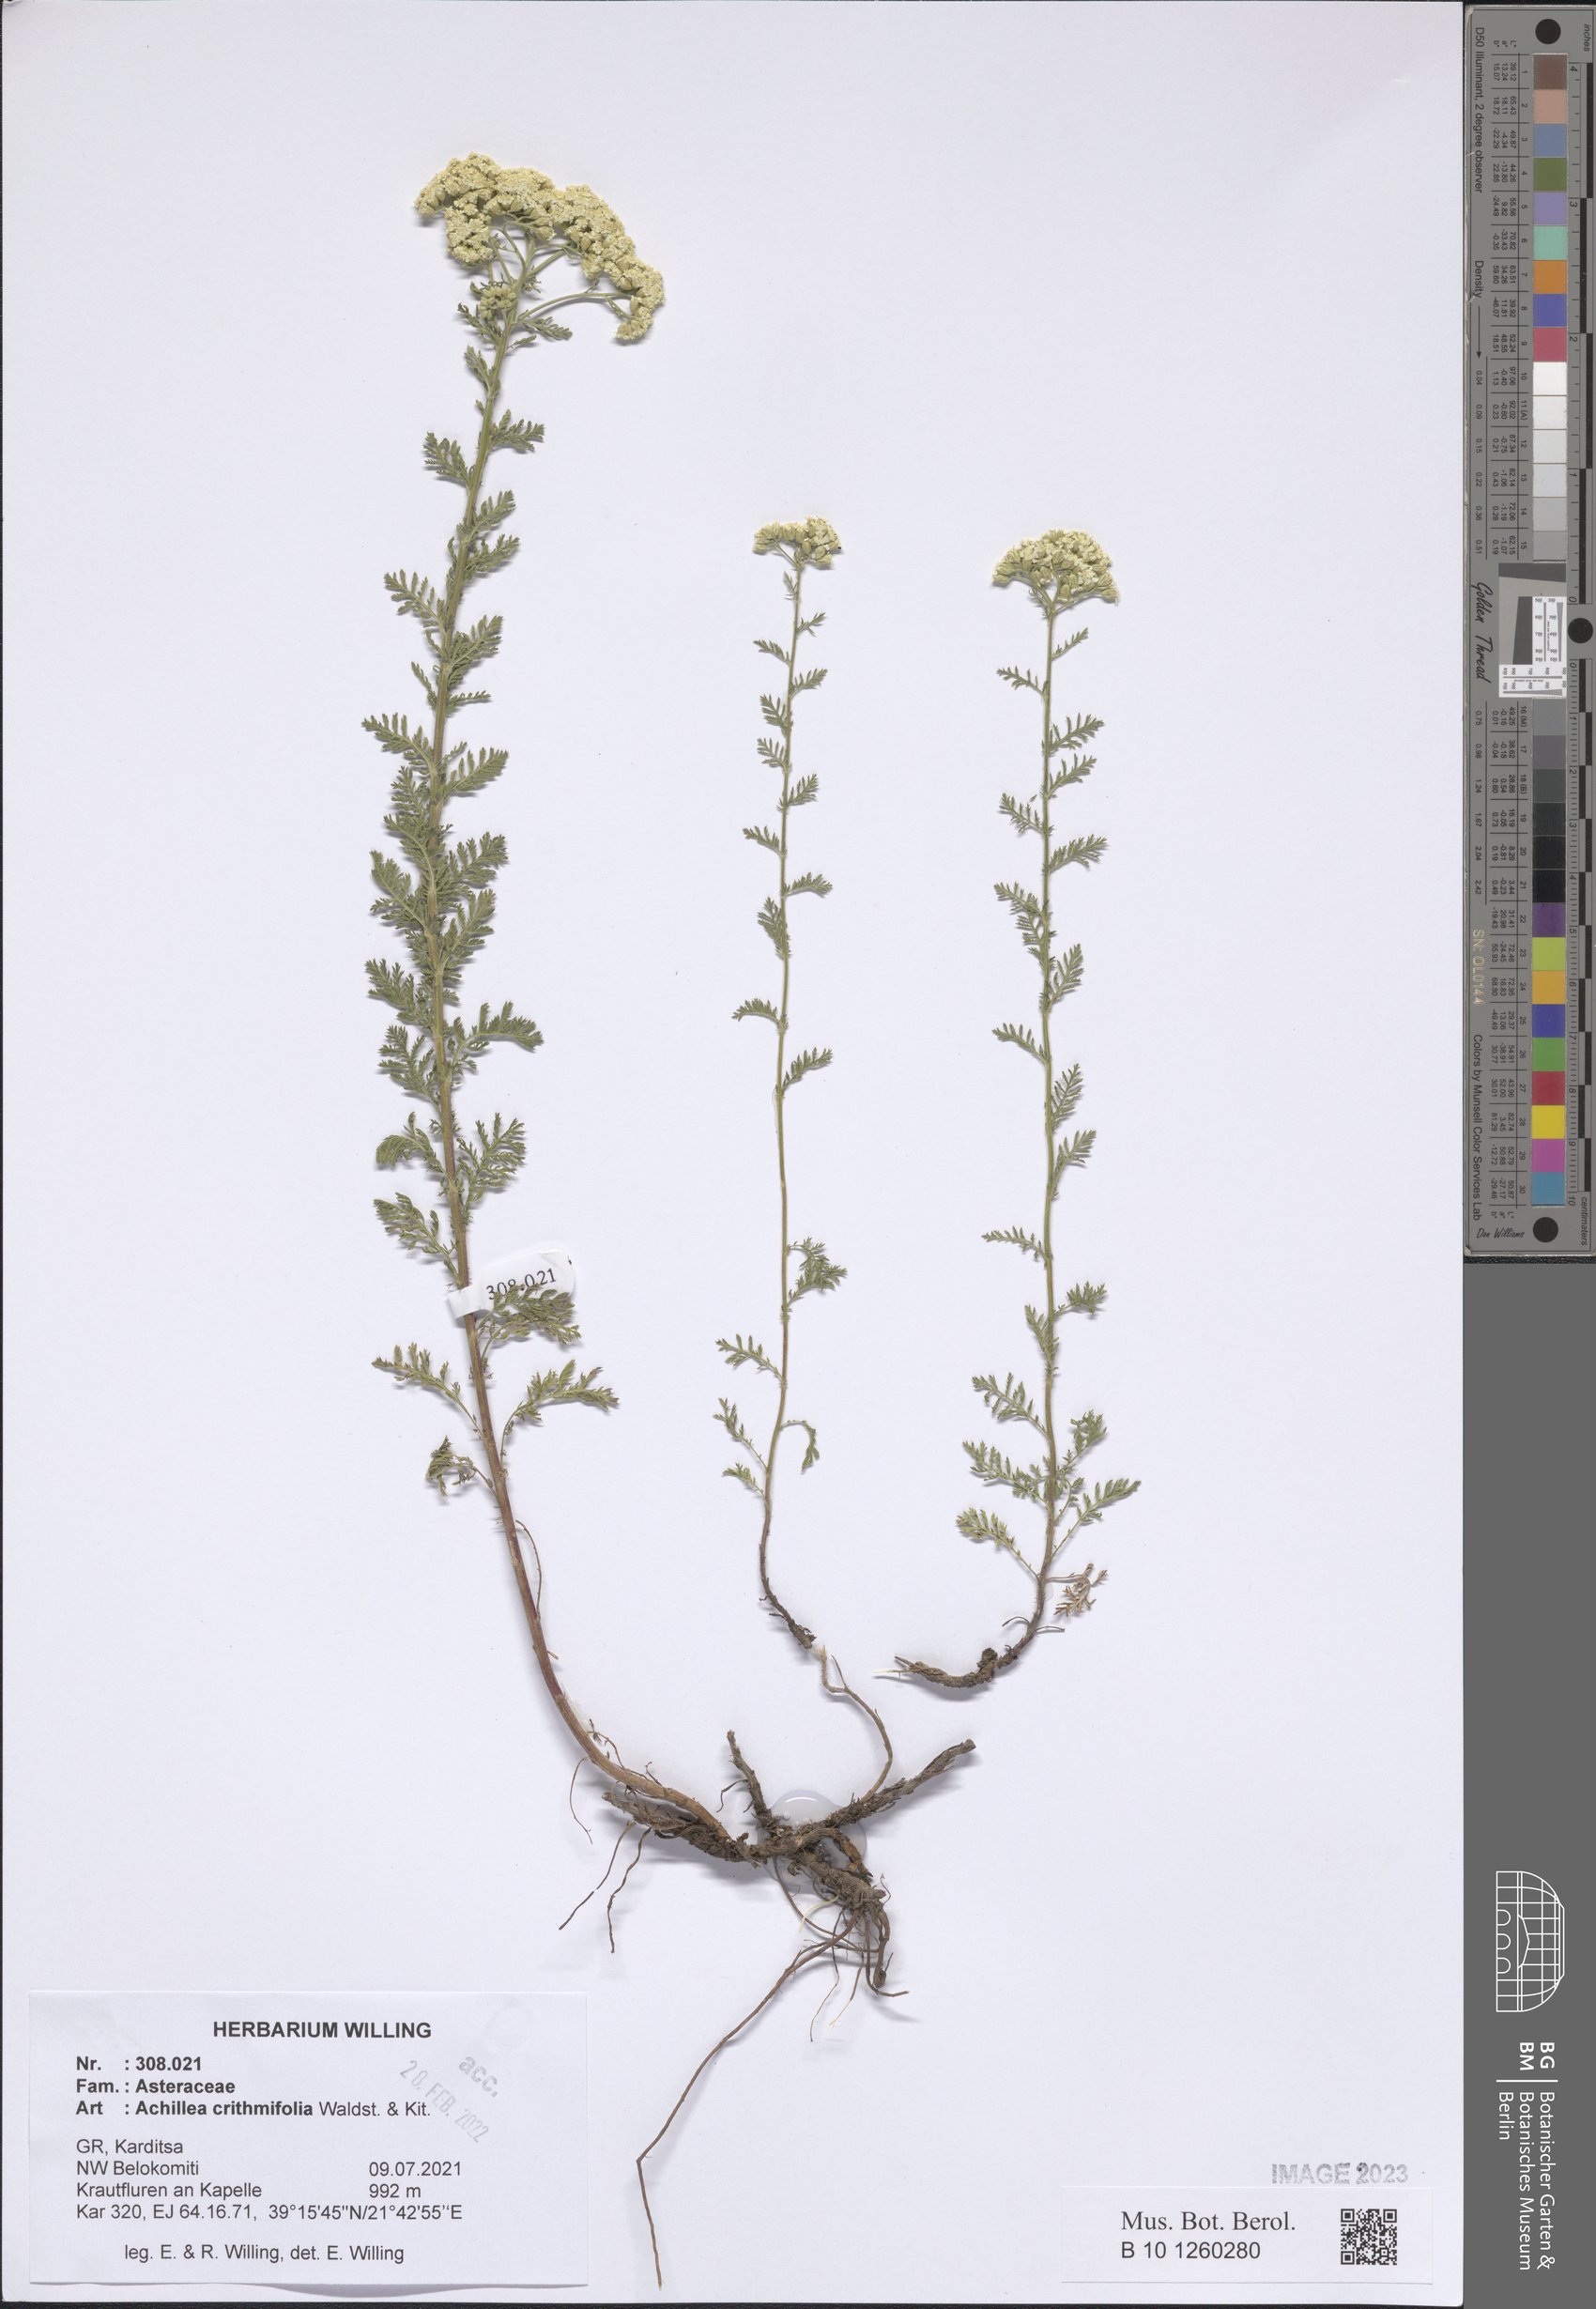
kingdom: Plantae
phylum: Tracheophyta
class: Magnoliopsida
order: Asterales
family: Asteraceae
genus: Achillea
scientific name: Achillea crithmifolia
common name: Yarrow
